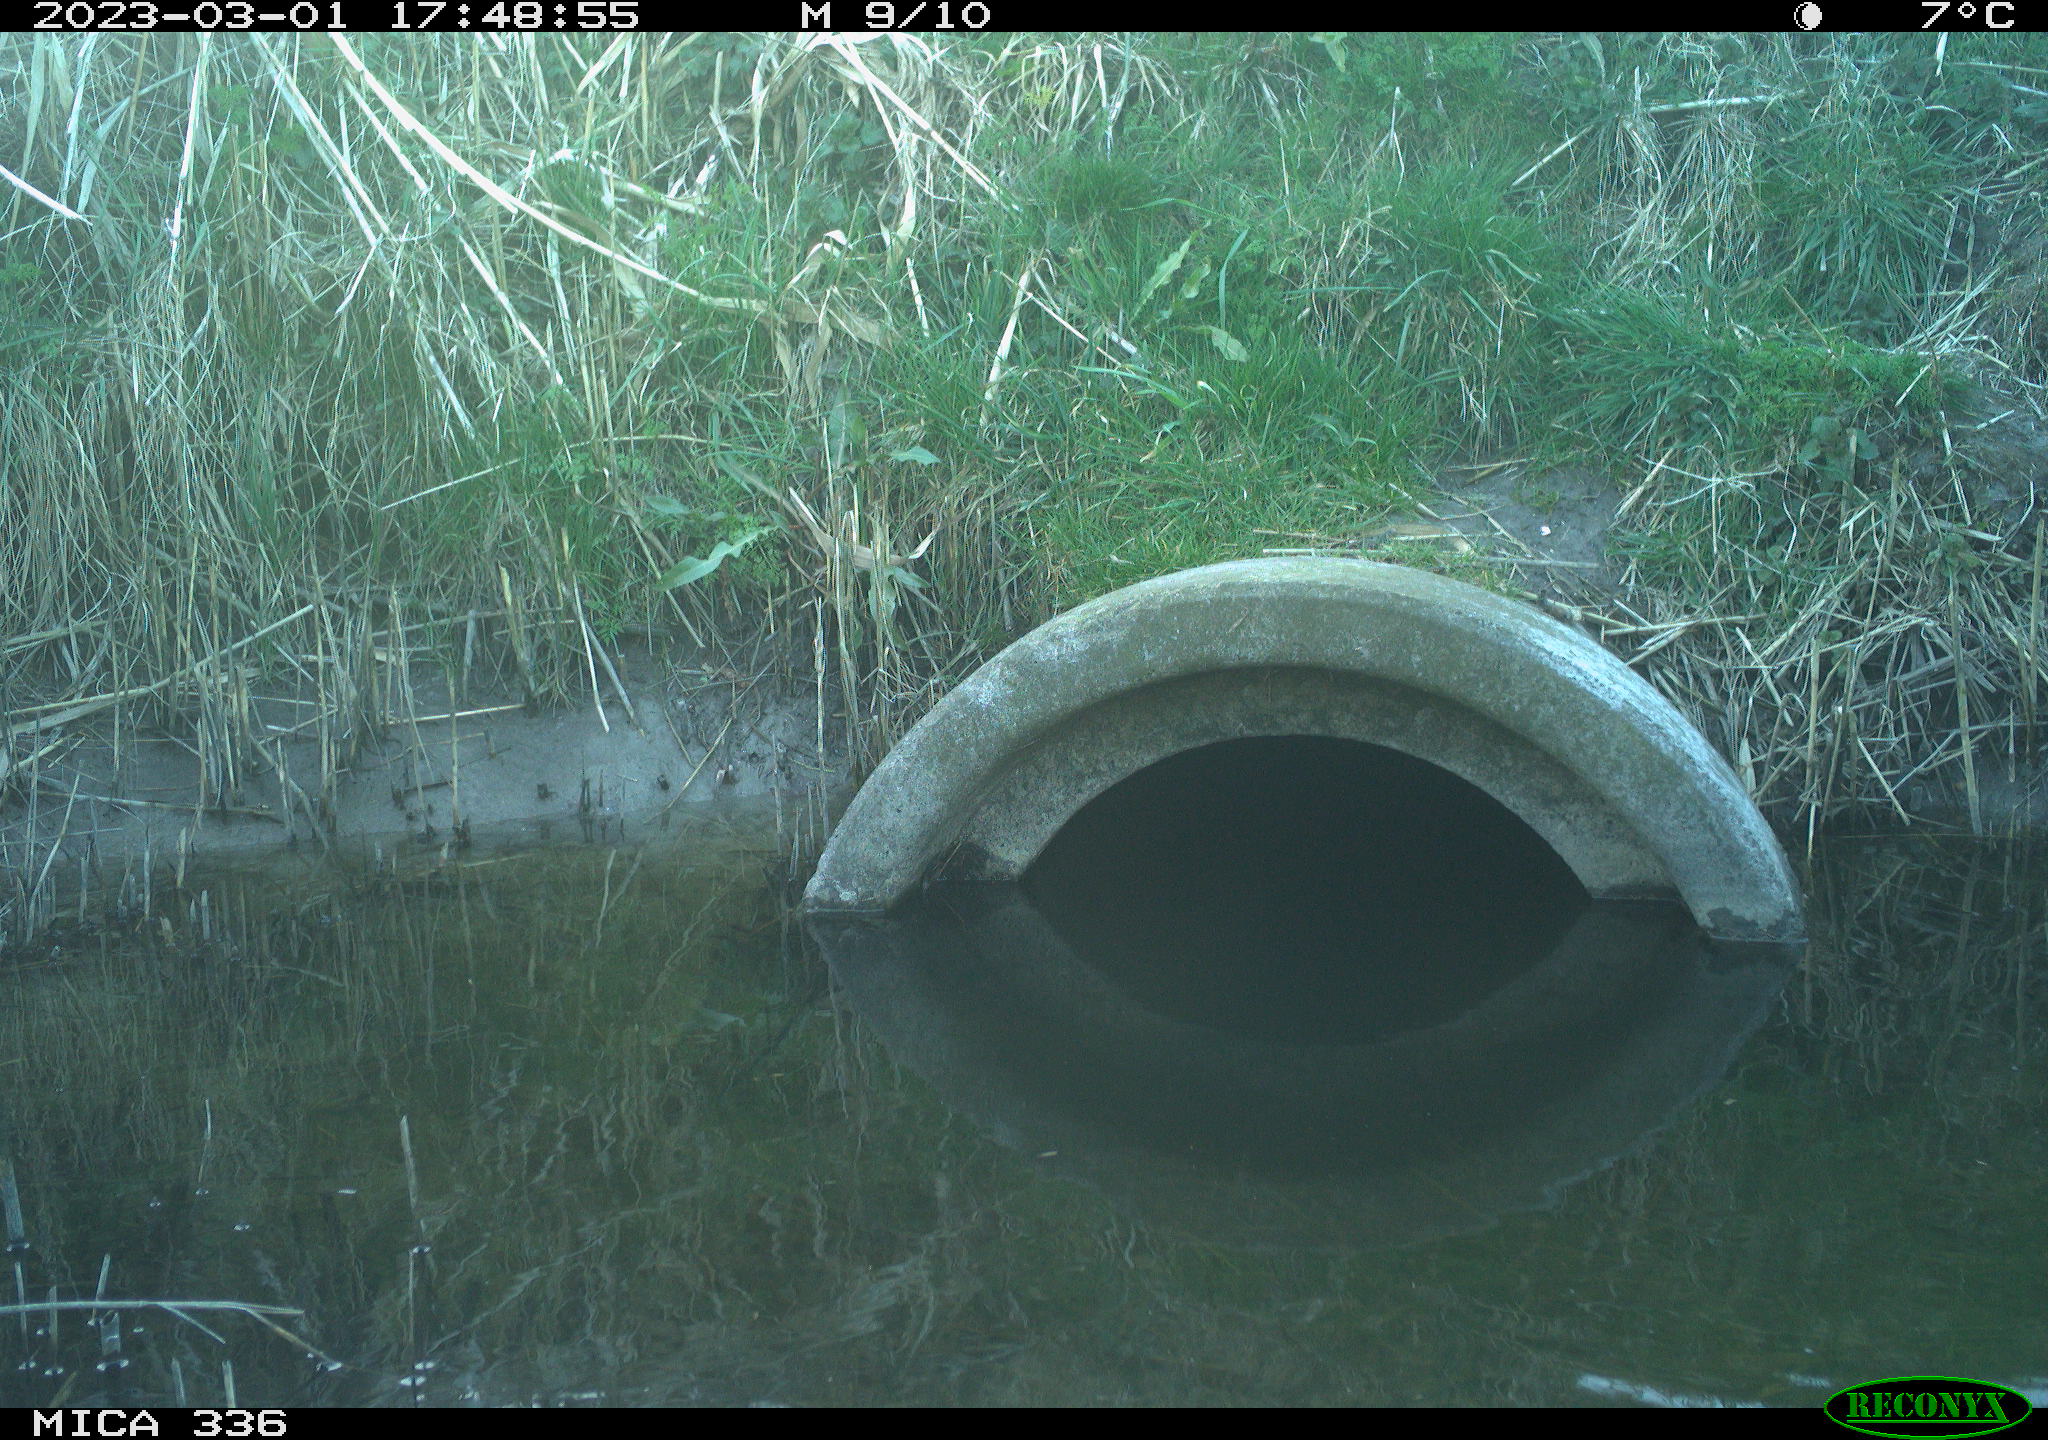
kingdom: Animalia
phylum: Chordata
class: Aves
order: Pelecaniformes
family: Ardeidae
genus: Ardea
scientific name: Ardea cinerea
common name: Grey heron
